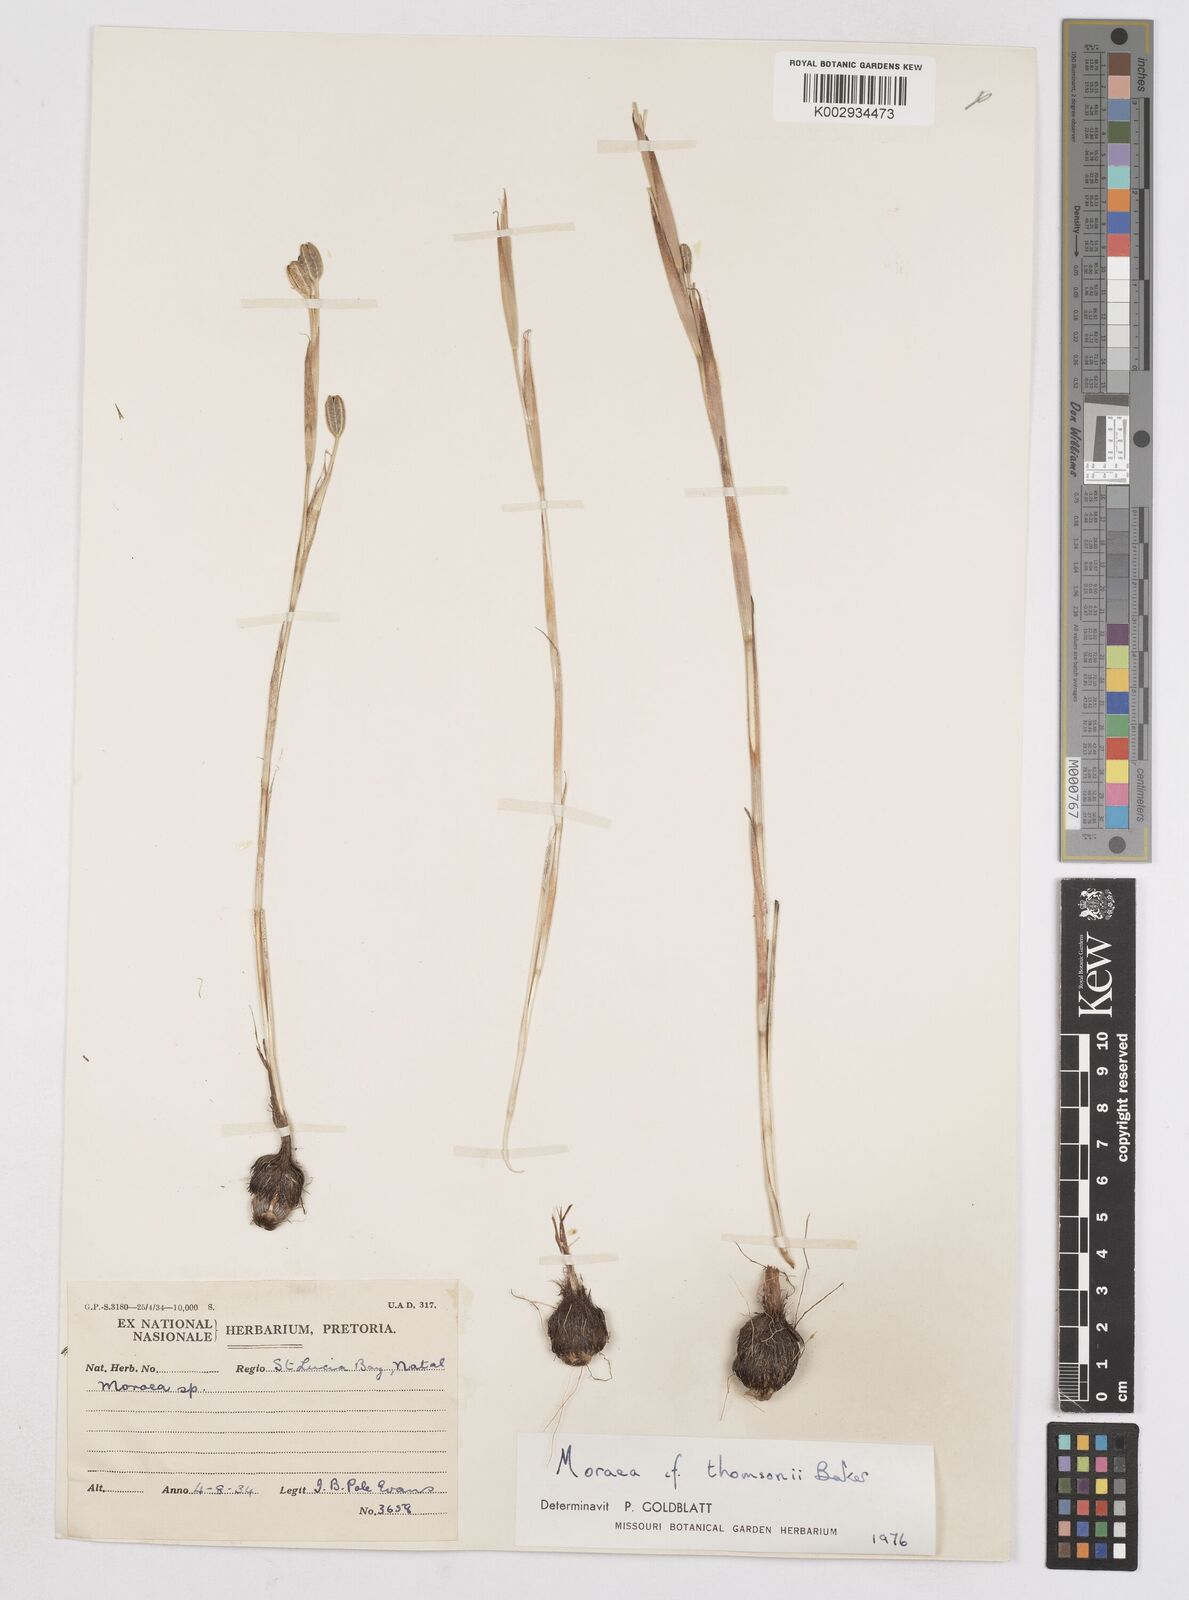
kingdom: Plantae
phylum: Tracheophyta
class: Liliopsida
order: Asparagales
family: Iridaceae
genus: Moraea
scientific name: Moraea thomsonii
